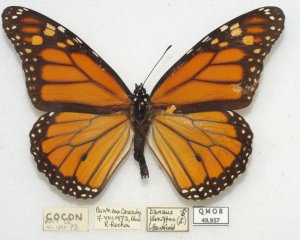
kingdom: Animalia
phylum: Arthropoda
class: Insecta
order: Lepidoptera
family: Nymphalidae
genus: Danaus
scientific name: Danaus plexippus
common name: Monarch
